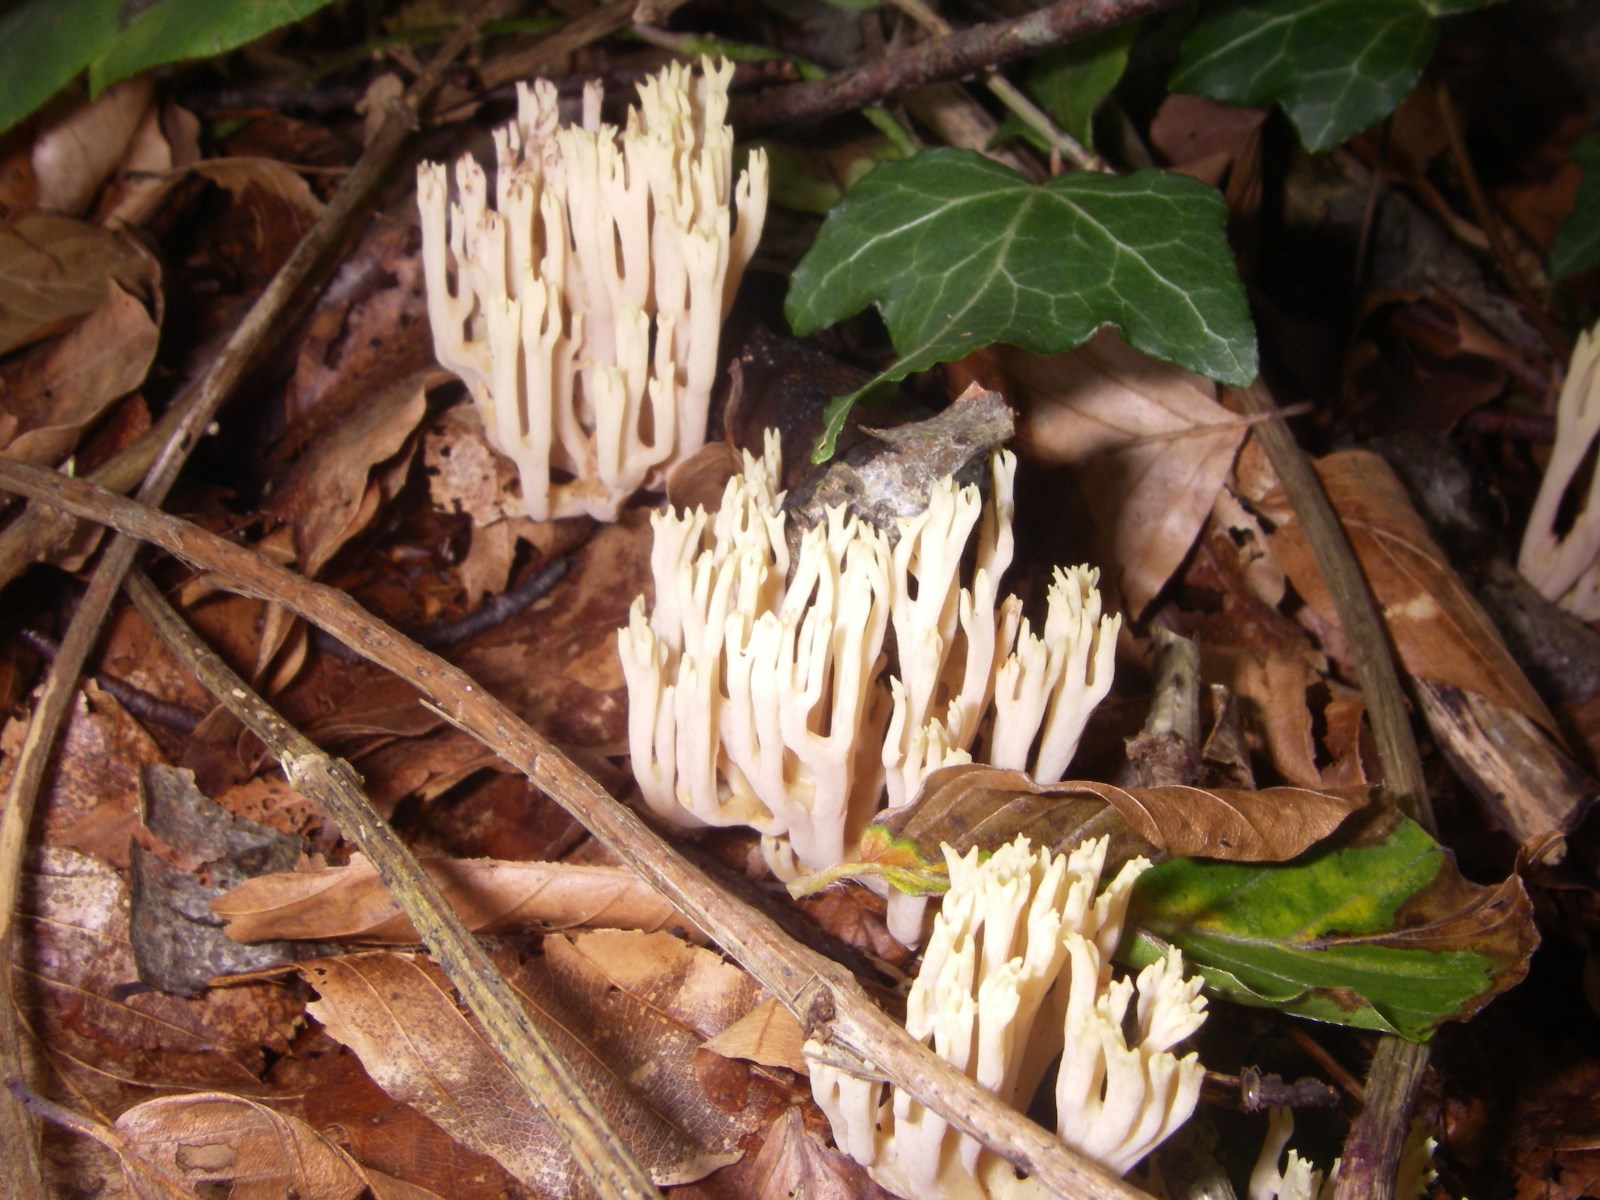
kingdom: Fungi
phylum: Basidiomycota
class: Agaricomycetes
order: Gomphales
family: Gomphaceae
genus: Ramaria
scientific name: Ramaria stricta
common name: rank koralsvamp
